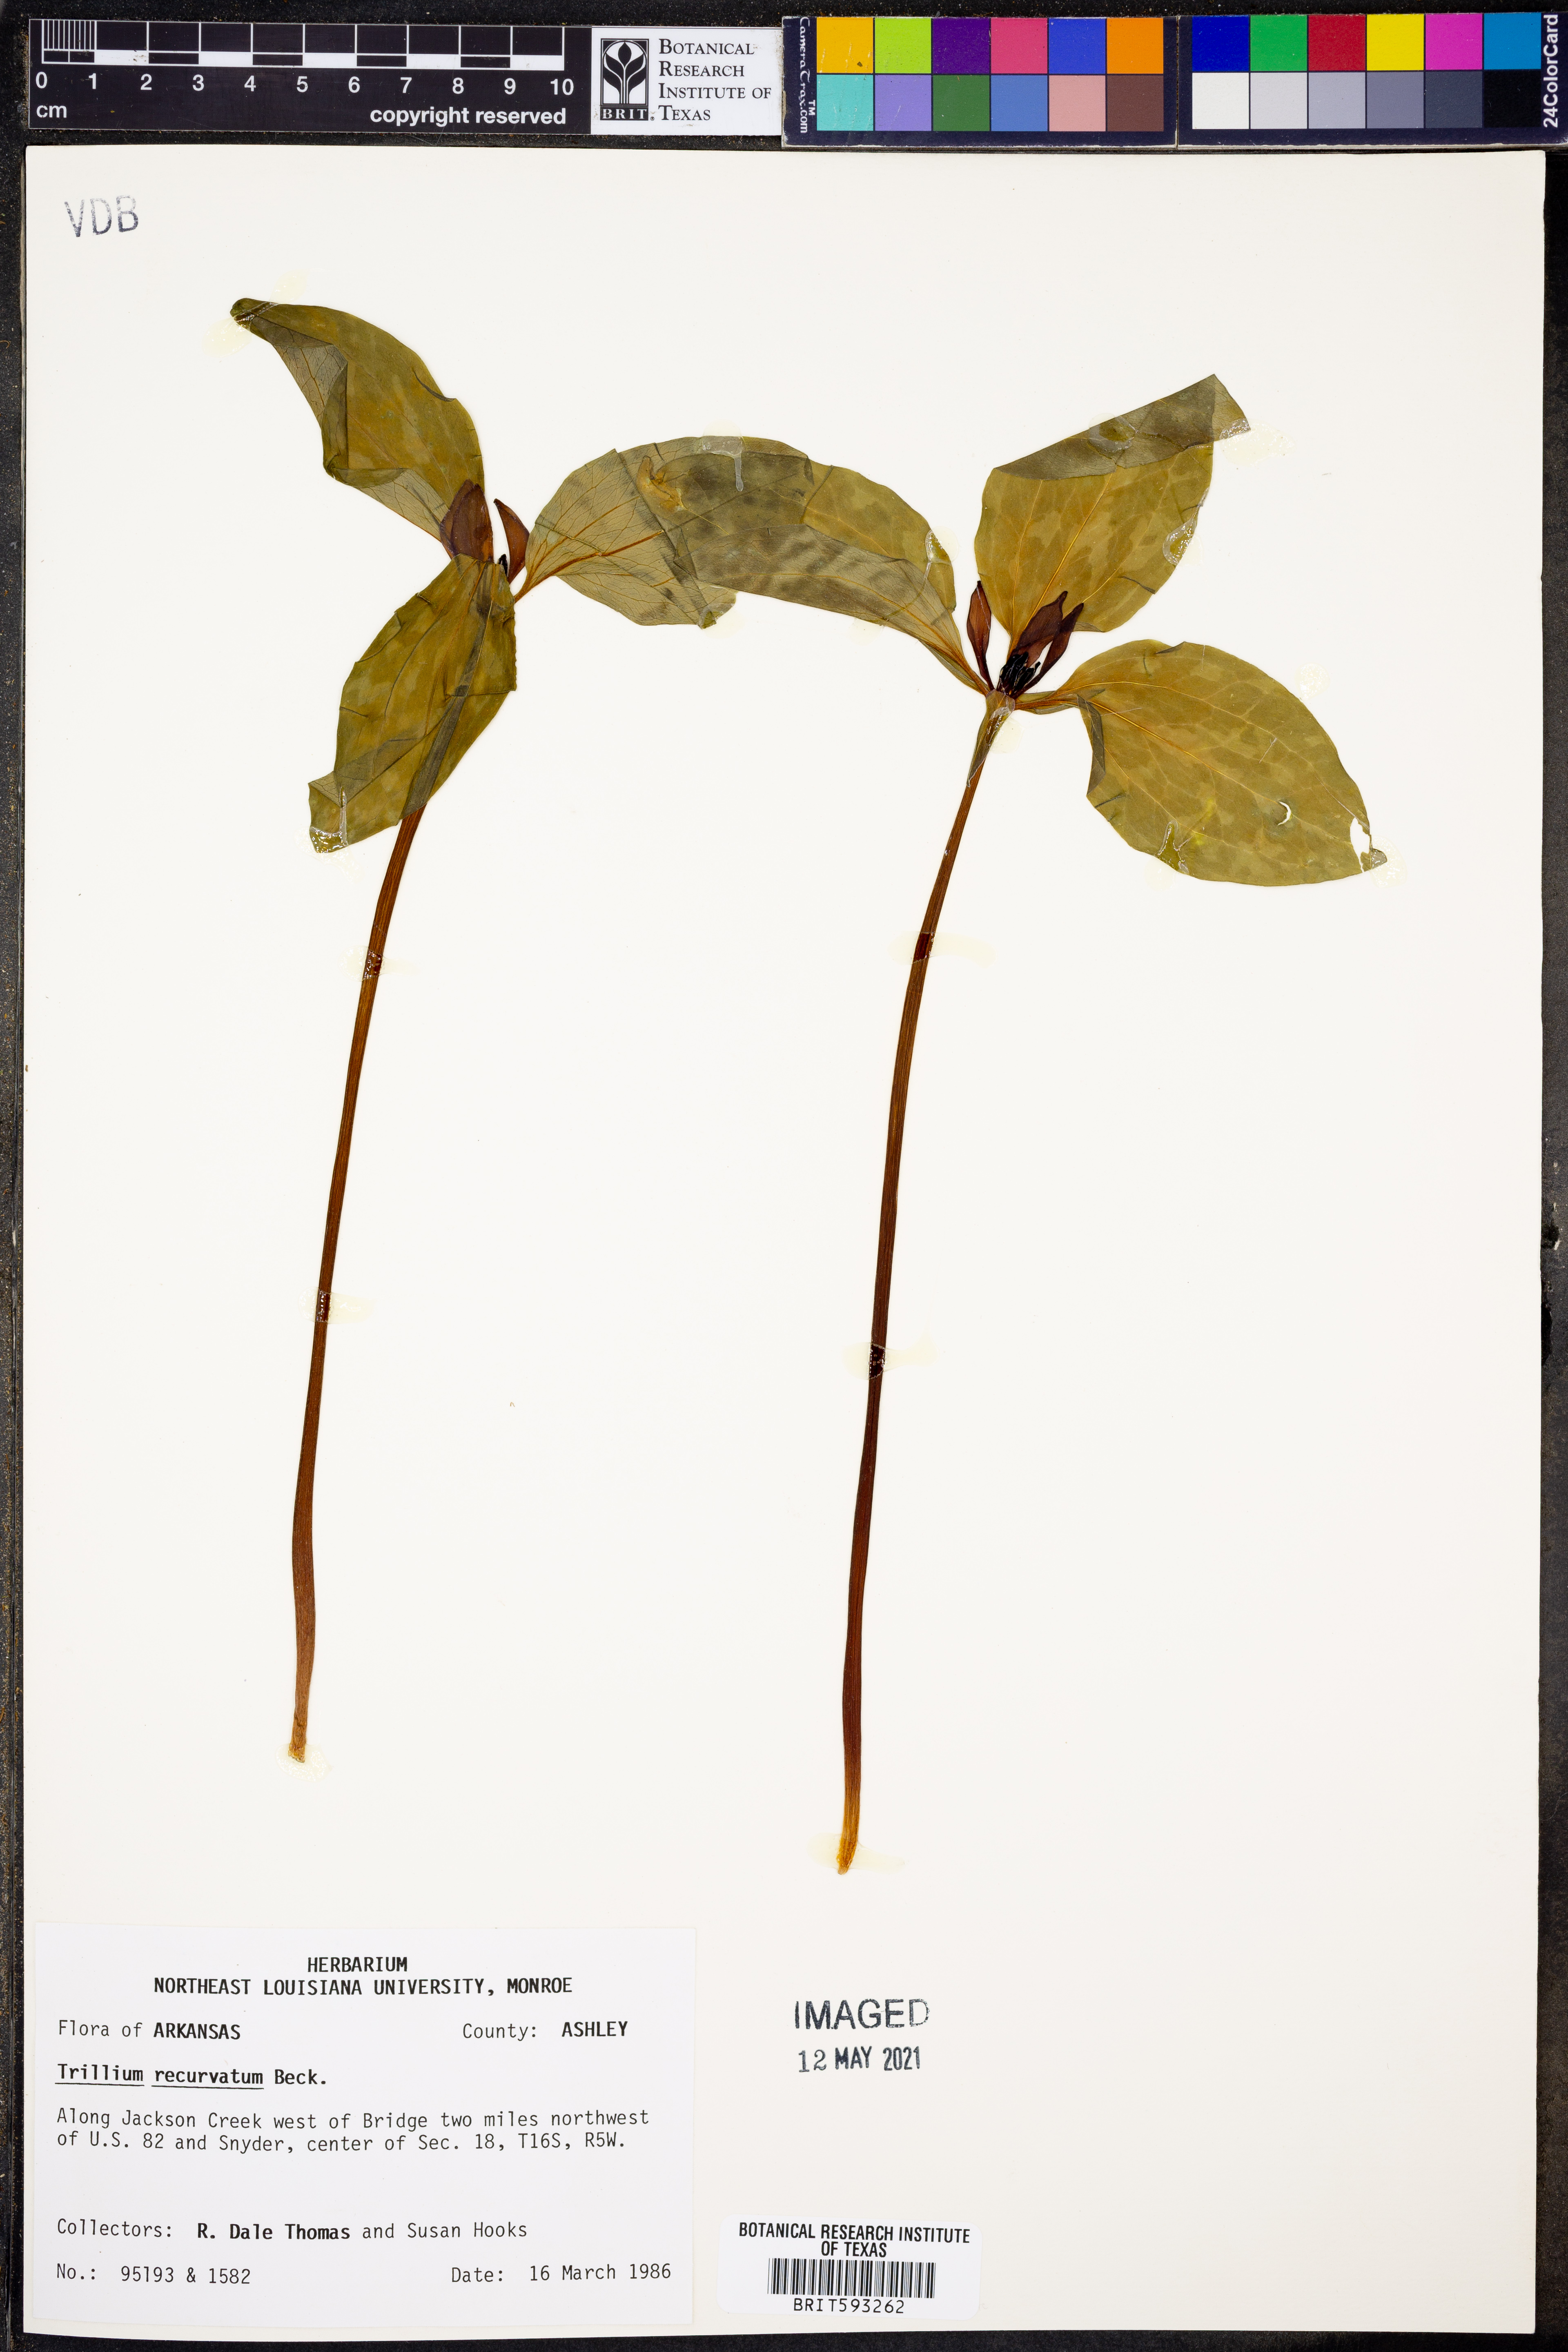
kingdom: Plantae
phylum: Tracheophyta
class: Liliopsida
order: Liliales
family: Melanthiaceae
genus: Trillium
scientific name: Trillium recurvatum
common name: Bloody butcher
